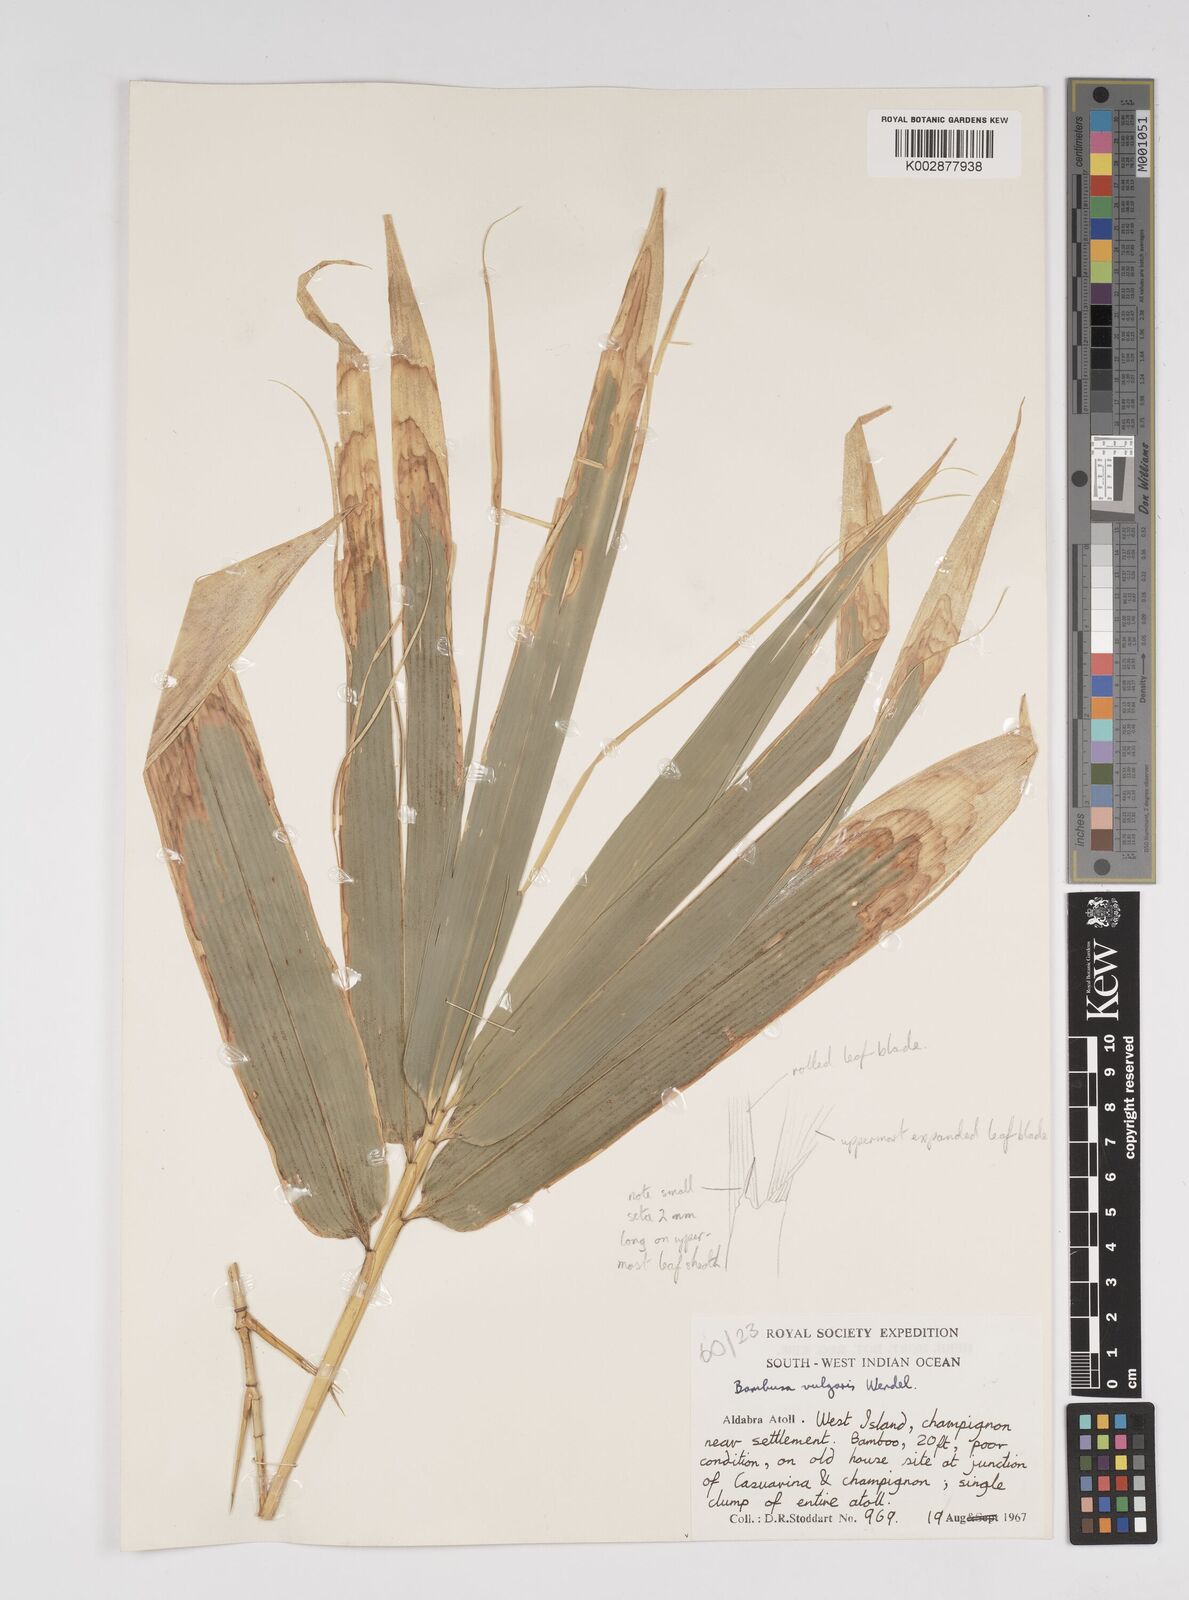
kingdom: Plantae
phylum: Tracheophyta
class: Liliopsida
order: Poales
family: Poaceae
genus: Bambusa
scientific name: Bambusa vulgaris
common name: Common bamboo
